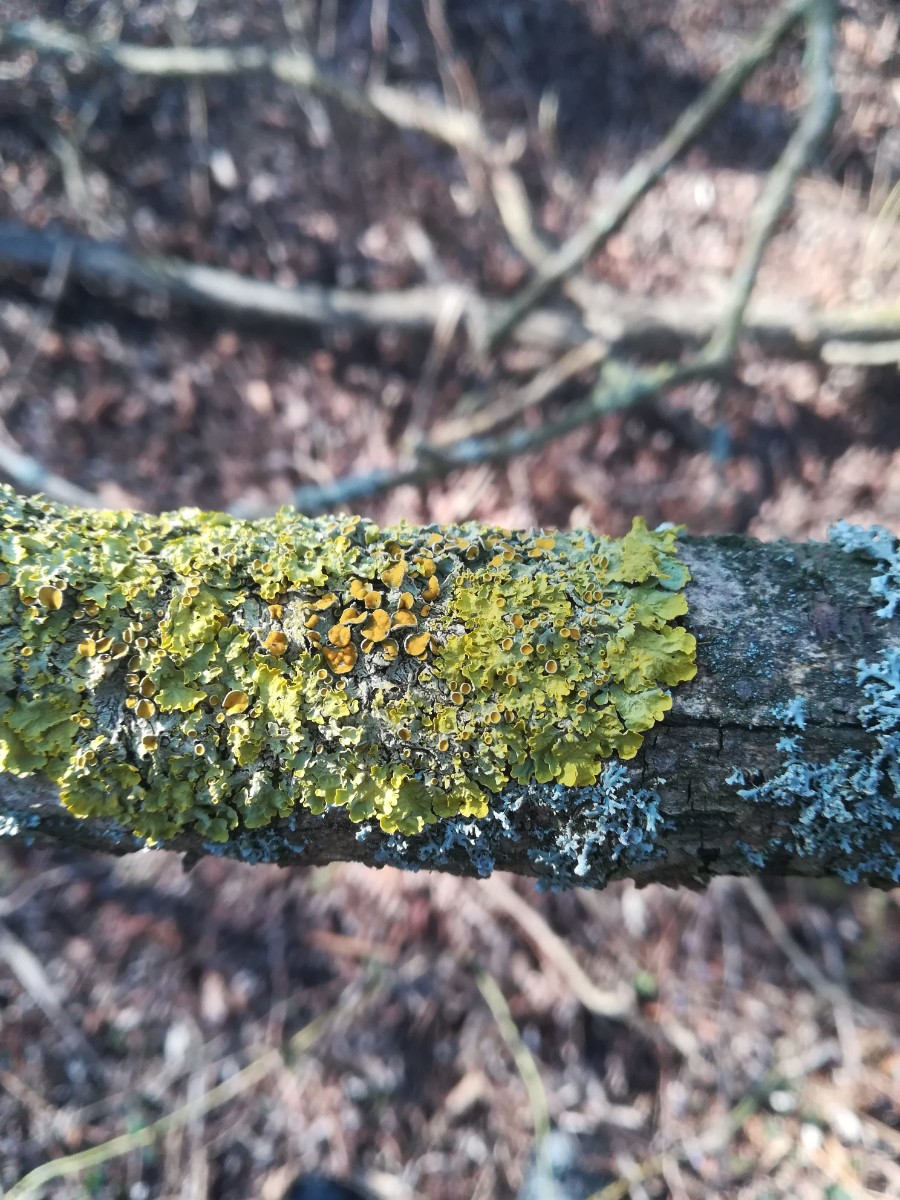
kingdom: Fungi
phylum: Ascomycota
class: Lecanoromycetes
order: Teloschistales
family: Teloschistaceae
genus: Xanthoria
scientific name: Xanthoria parietina
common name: almindelig væggelav
